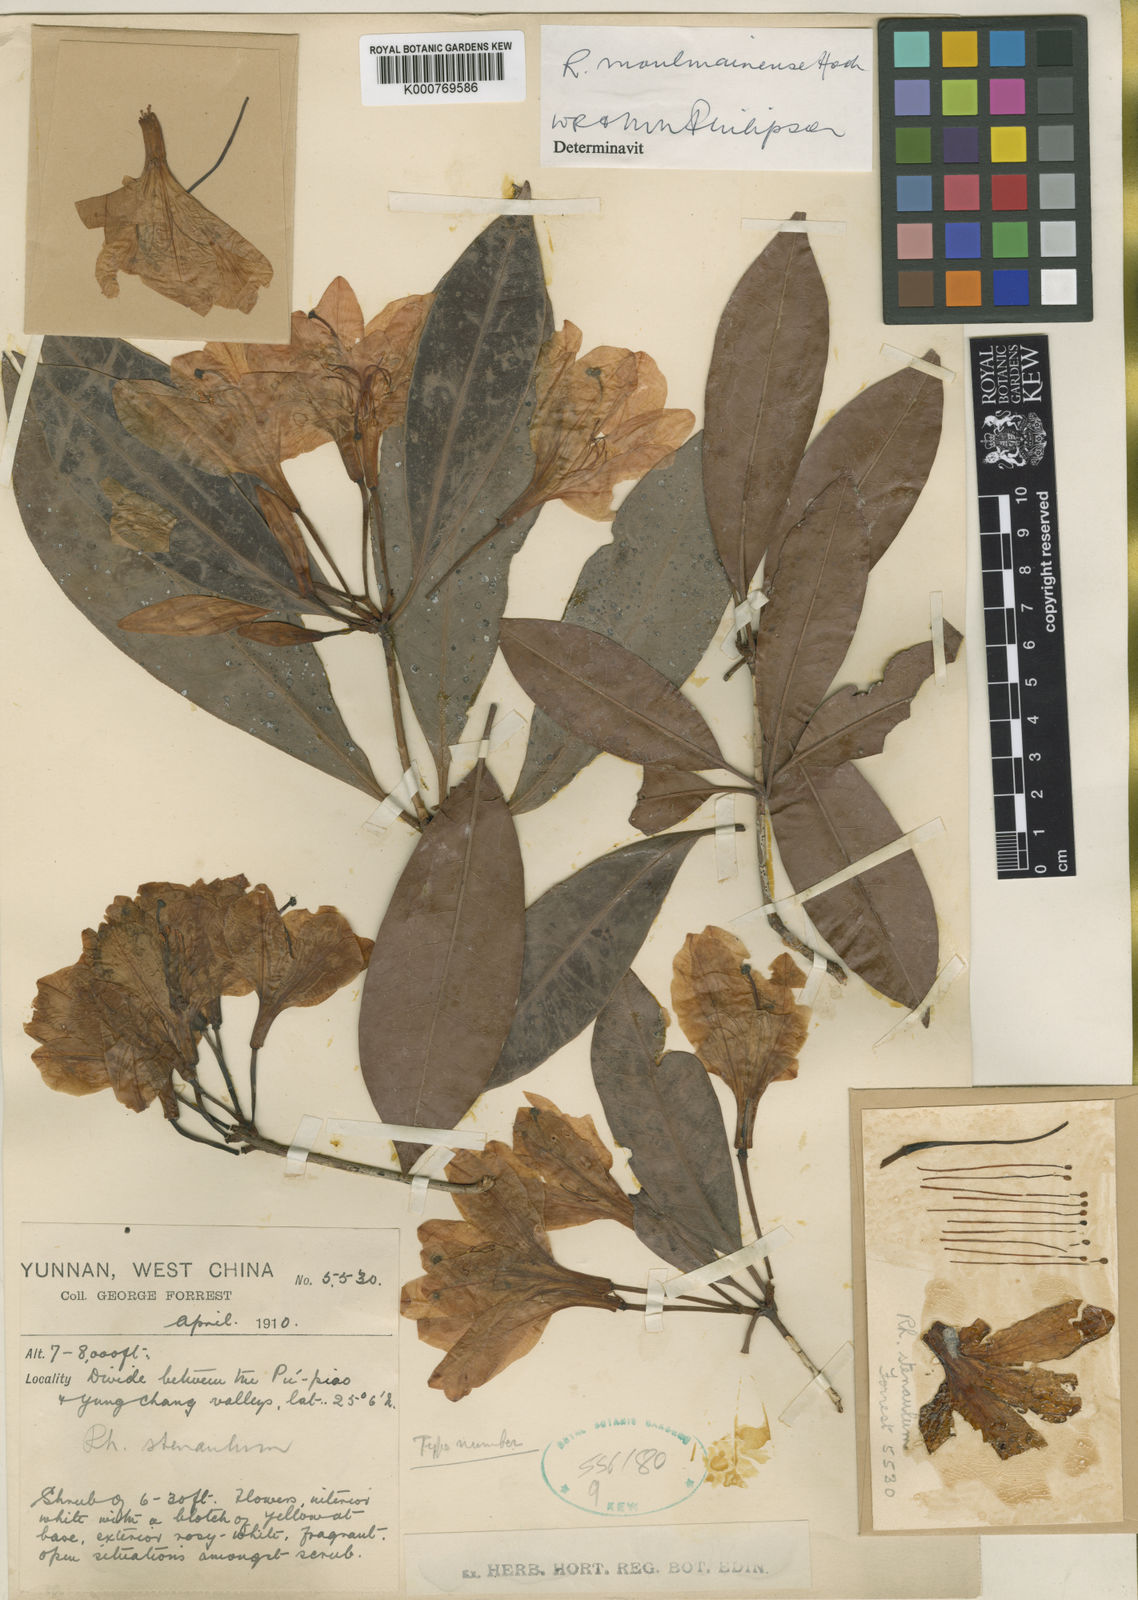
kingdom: Plantae
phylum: Tracheophyta
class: Magnoliopsida
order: Ericales
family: Ericaceae
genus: Rhododendron
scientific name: Rhododendron moulmainense
